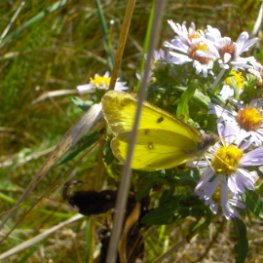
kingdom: Animalia
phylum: Arthropoda
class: Insecta
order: Lepidoptera
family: Pieridae
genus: Colias
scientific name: Colias philodice
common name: Clouded Sulphur
